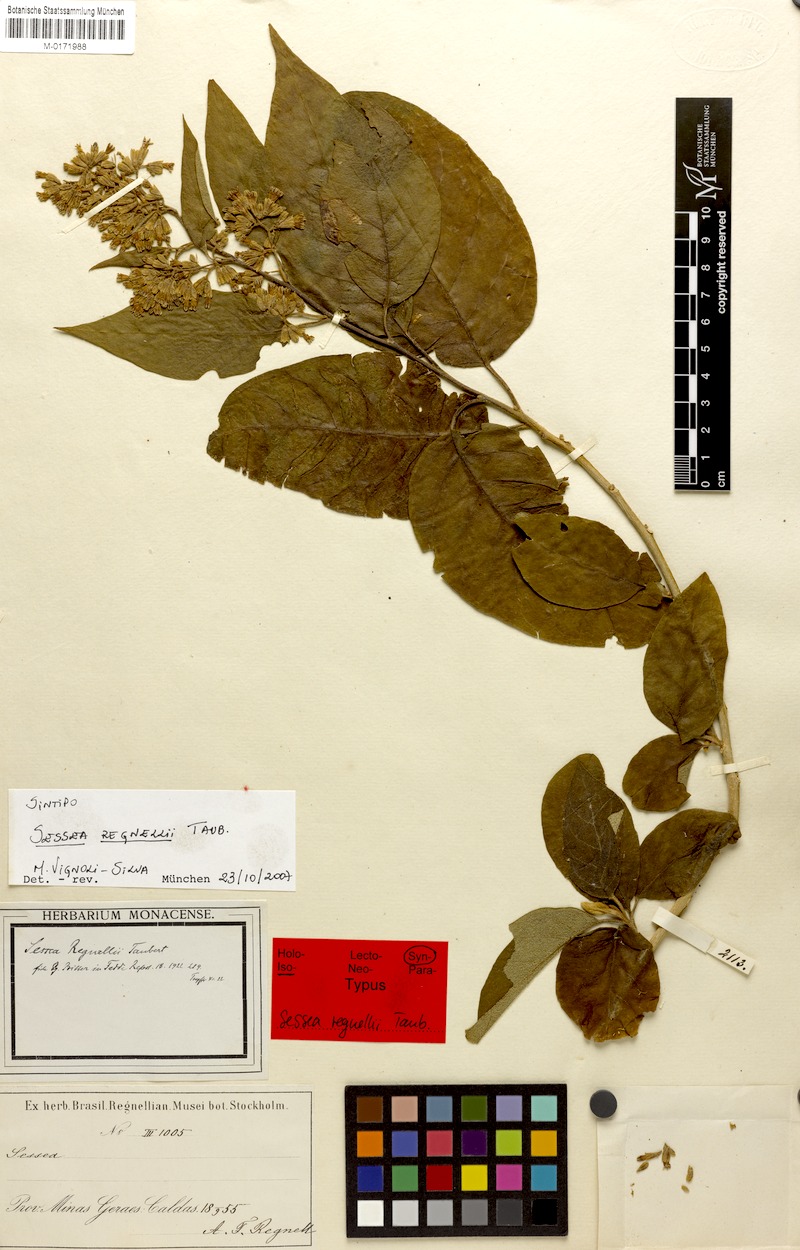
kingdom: Plantae
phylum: Tracheophyta
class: Magnoliopsida
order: Solanales
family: Solanaceae
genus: Cestrum
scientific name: Cestrum capsulare
